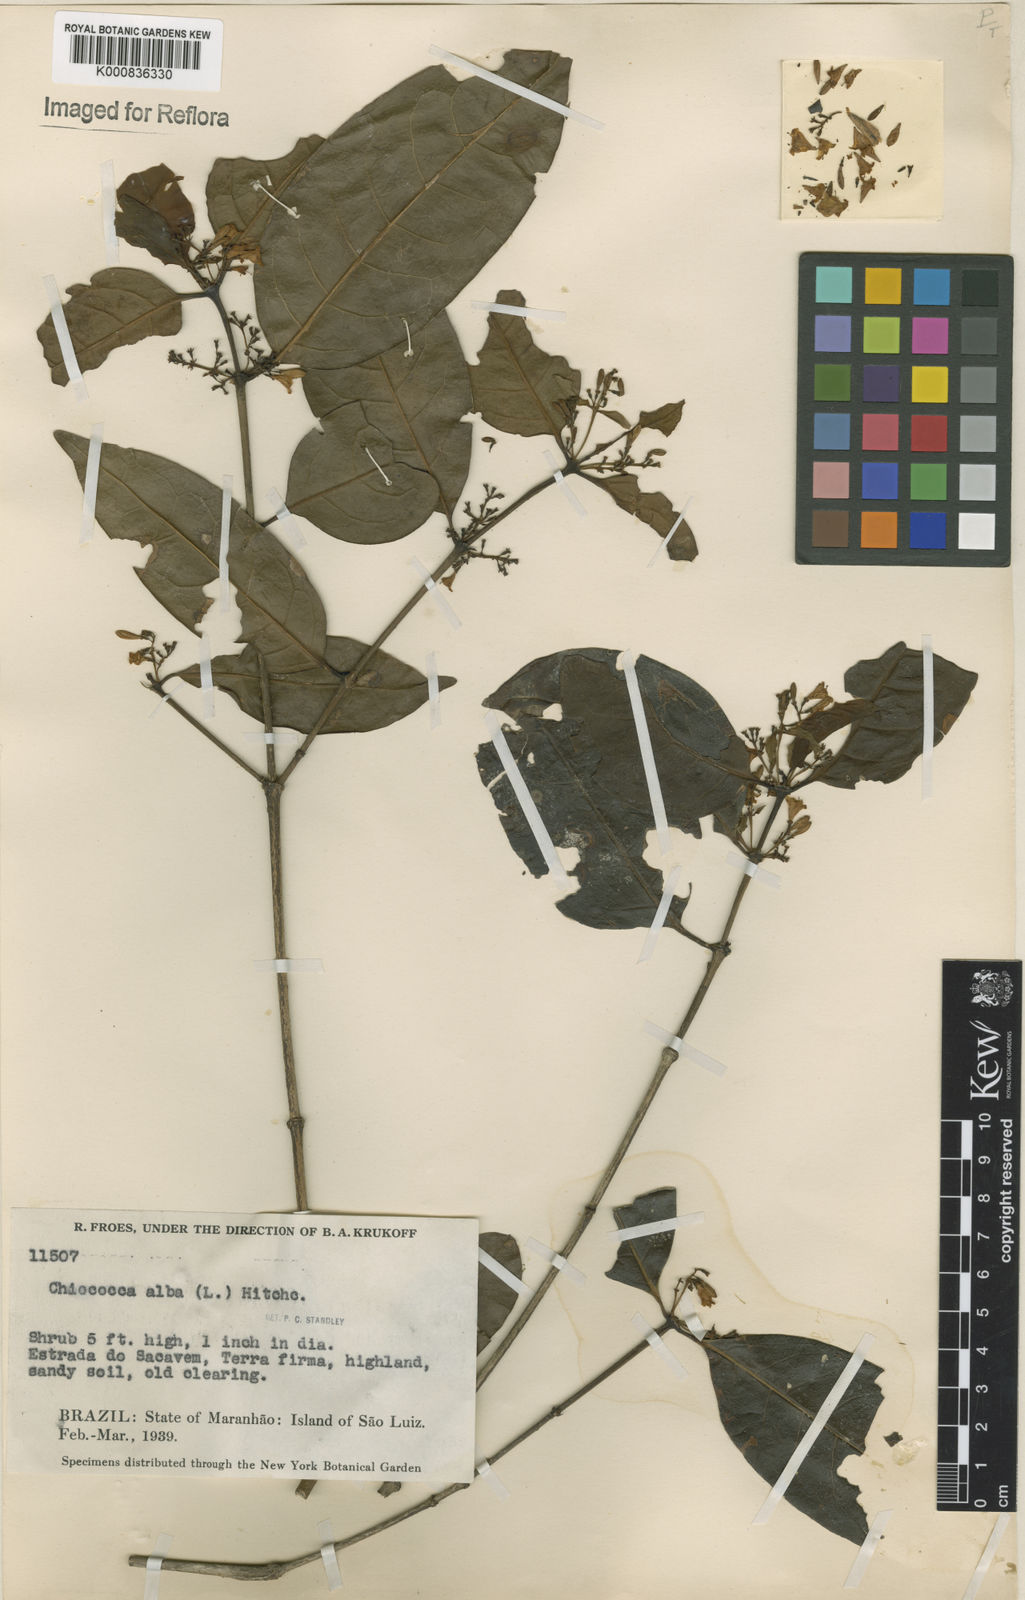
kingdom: Plantae
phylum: Tracheophyta
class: Magnoliopsida
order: Gentianales
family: Rubiaceae
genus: Chiococca
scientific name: Chiococca alba
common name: Snowberry
